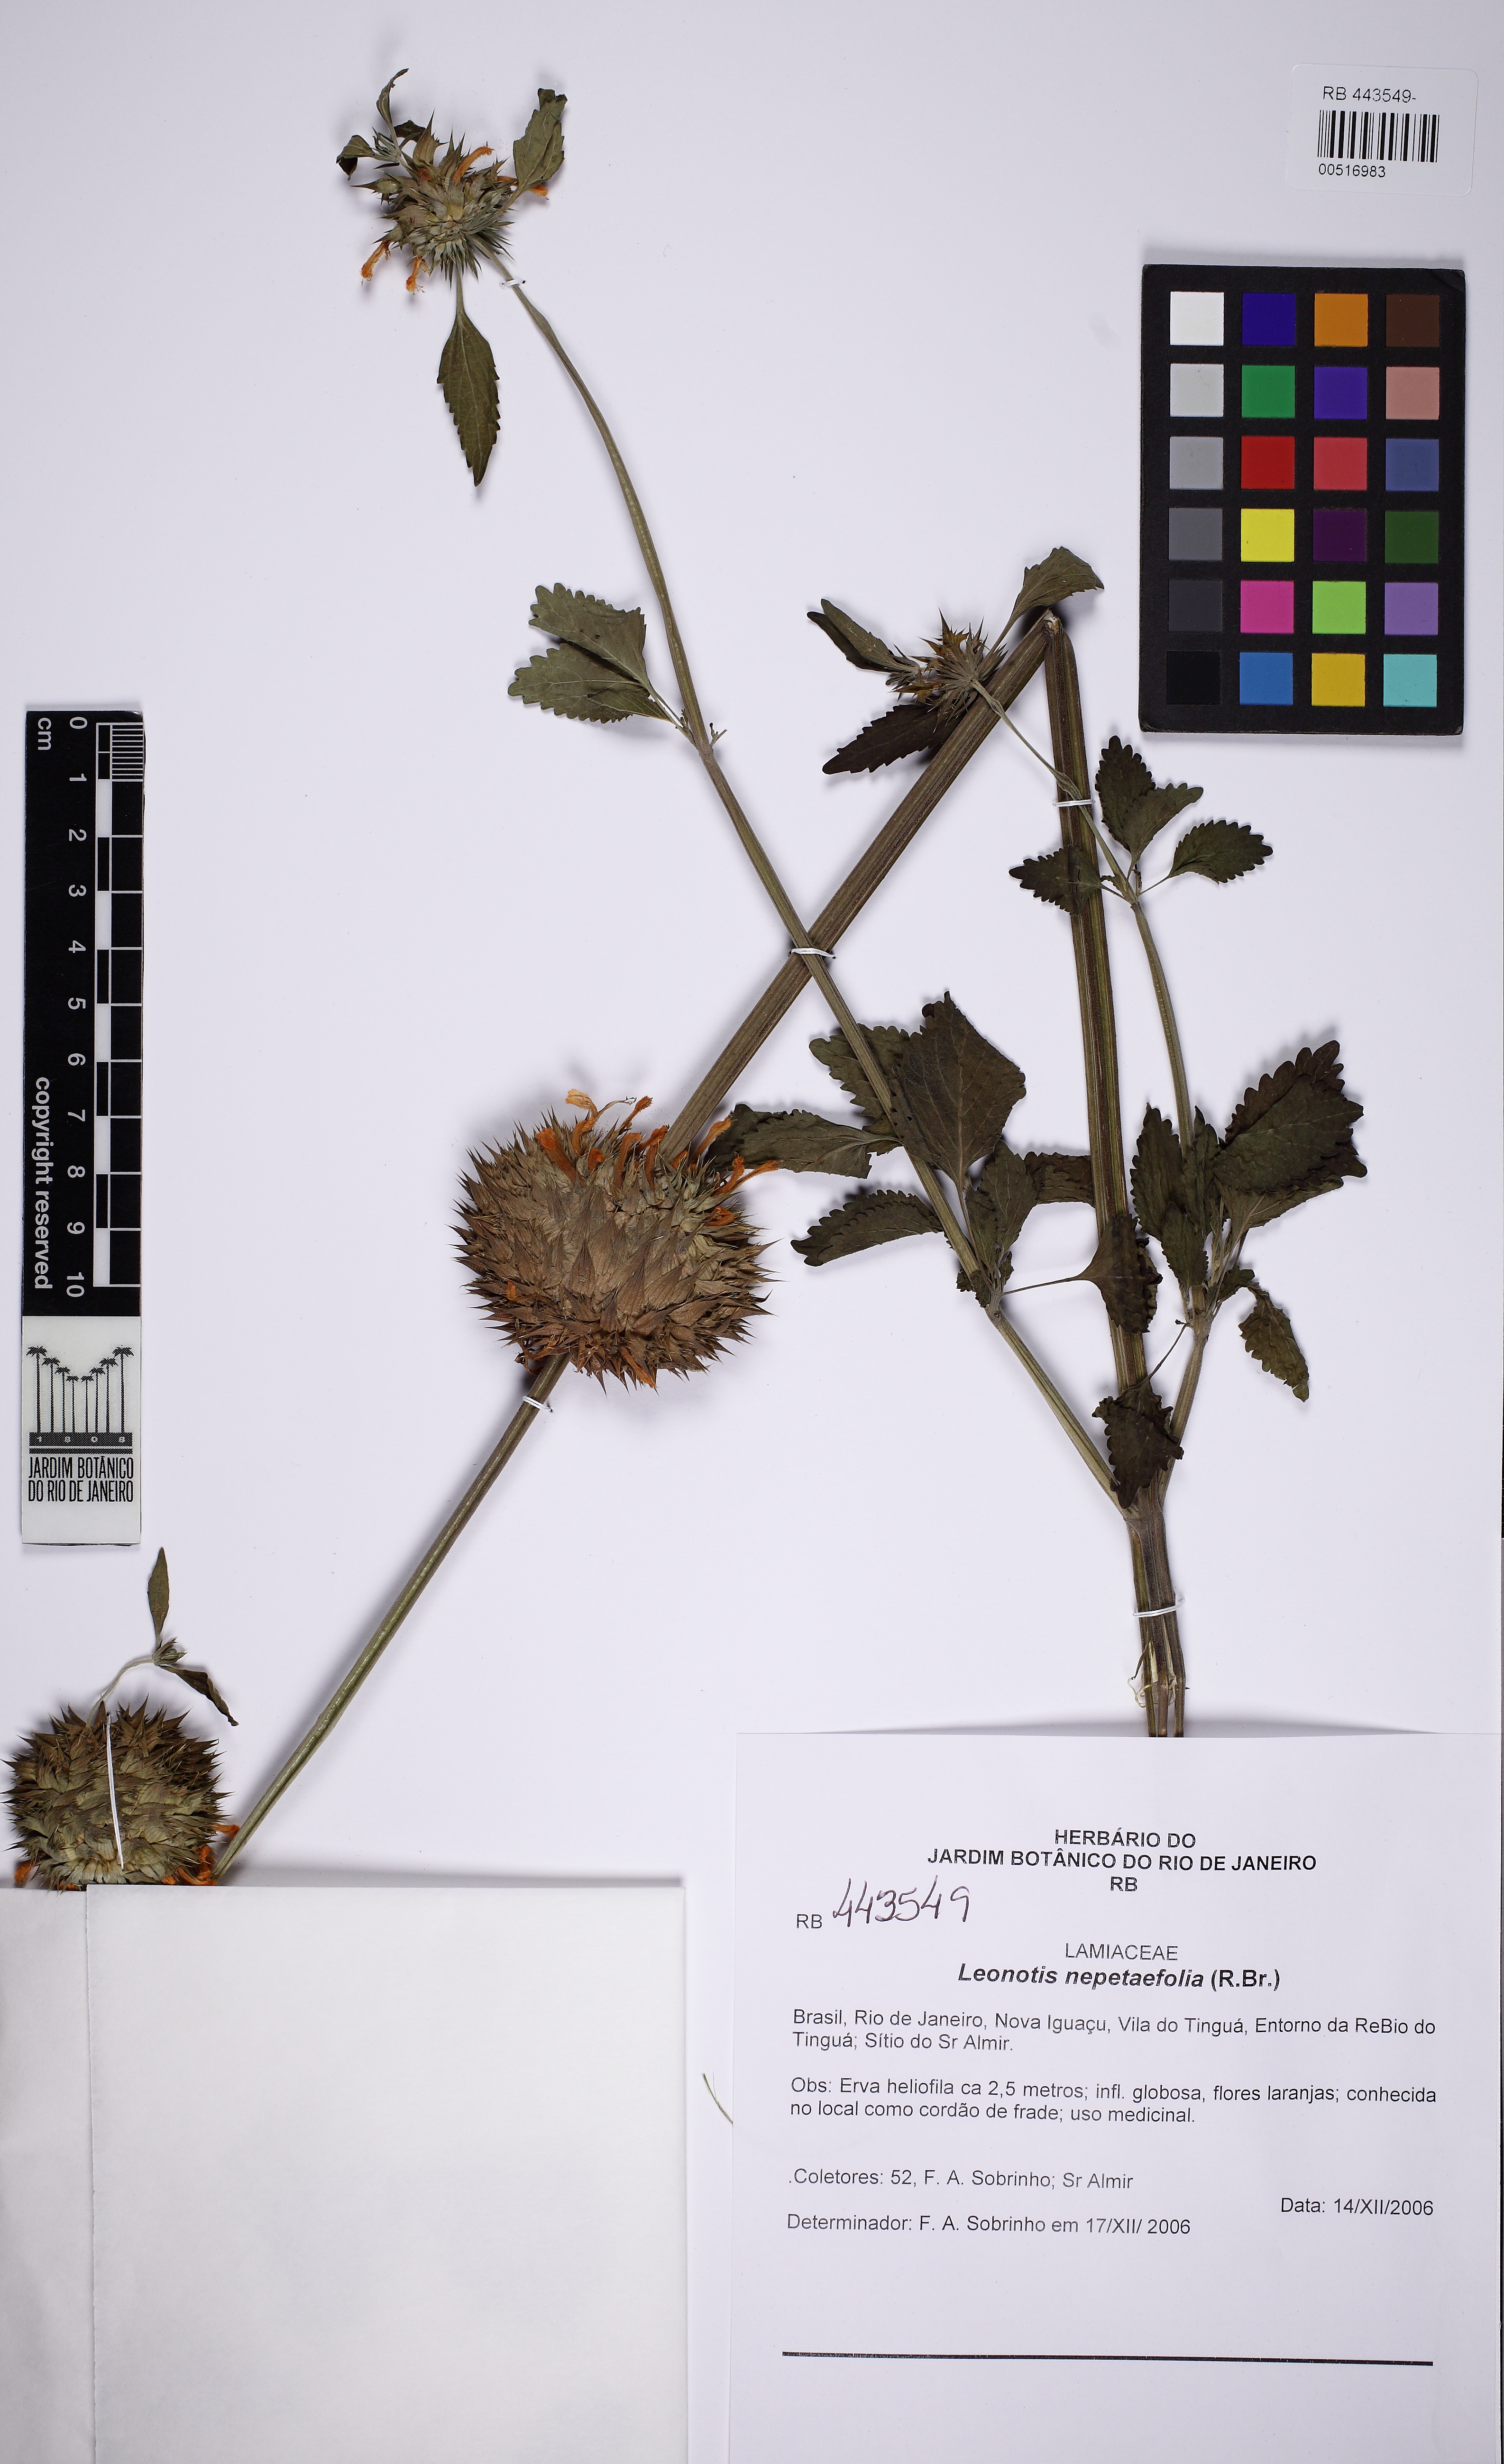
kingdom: Plantae
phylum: Tracheophyta
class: Magnoliopsida
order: Lamiales
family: Lamiaceae
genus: Leonotis
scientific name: Leonotis nepetifolia
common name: Christmas candlestick
